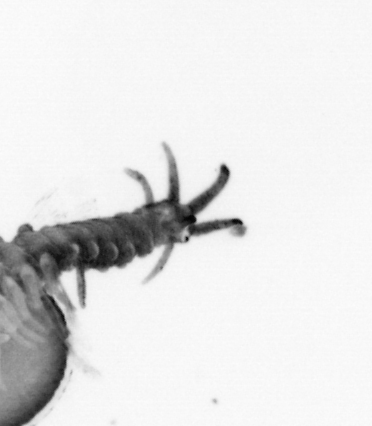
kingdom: Animalia
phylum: Annelida
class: Polychaeta
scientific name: Polychaeta
